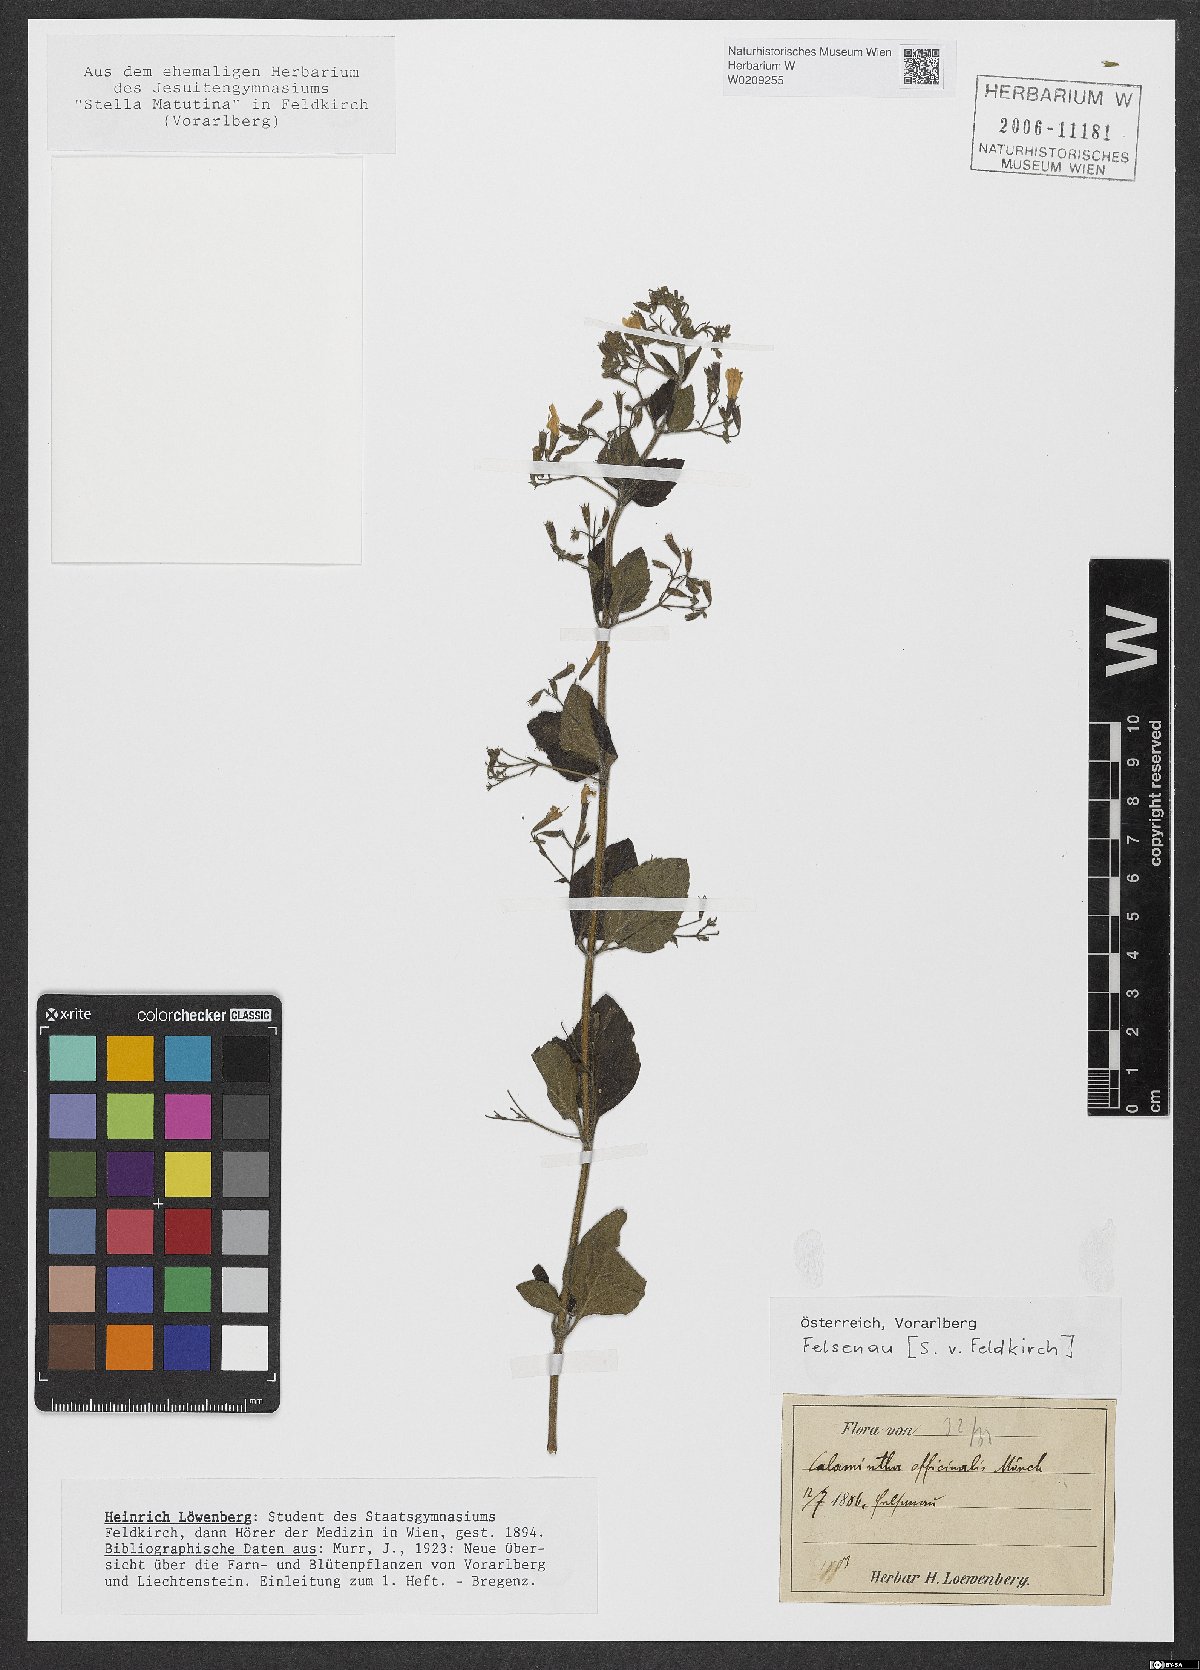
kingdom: Plantae
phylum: Tracheophyta
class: Magnoliopsida
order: Lamiales
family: Lamiaceae
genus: Clinopodium
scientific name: Clinopodium nepeta
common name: Lesser calamint
